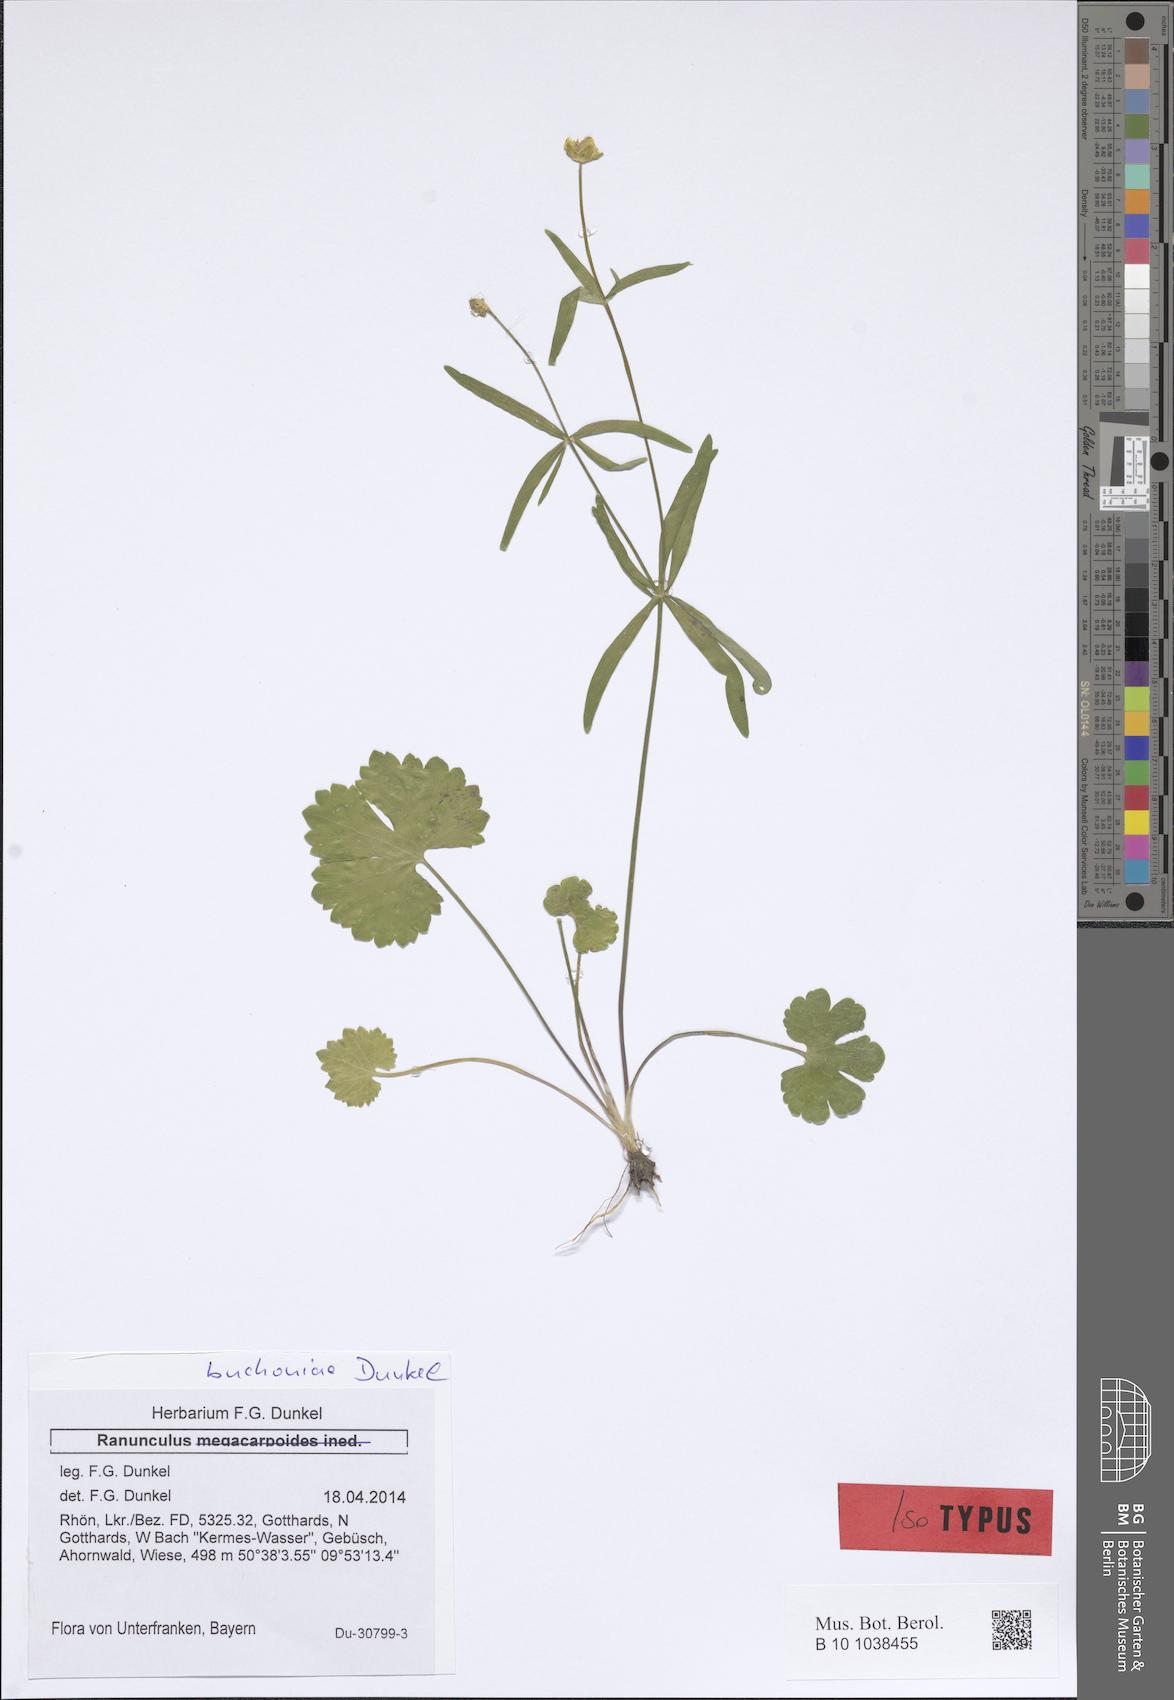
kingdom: Plantae
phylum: Tracheophyta
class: Magnoliopsida
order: Ranunculales
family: Ranunculaceae
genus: Ranunculus
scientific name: Ranunculus buchoniae
